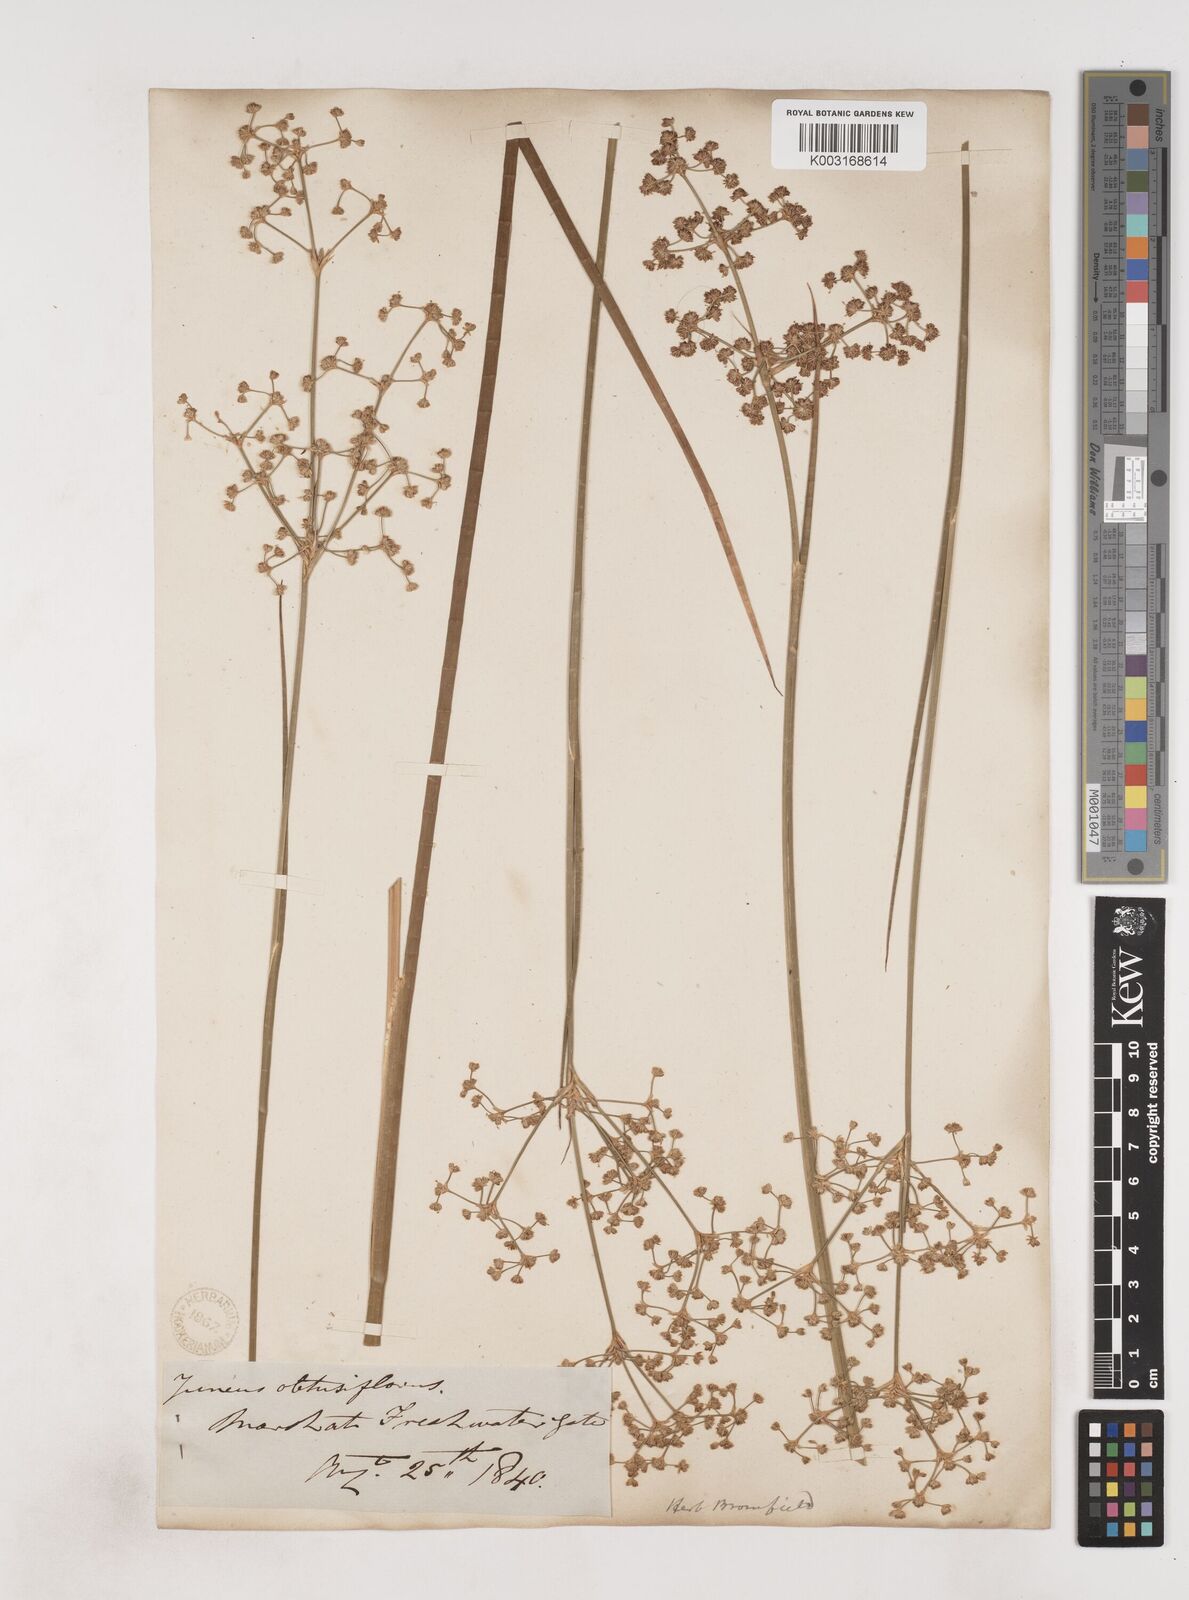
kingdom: Plantae
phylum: Tracheophyta
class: Liliopsida
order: Poales
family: Juncaceae
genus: Juncus
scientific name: Juncus subnodulosus
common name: Blunt-flowered rush
